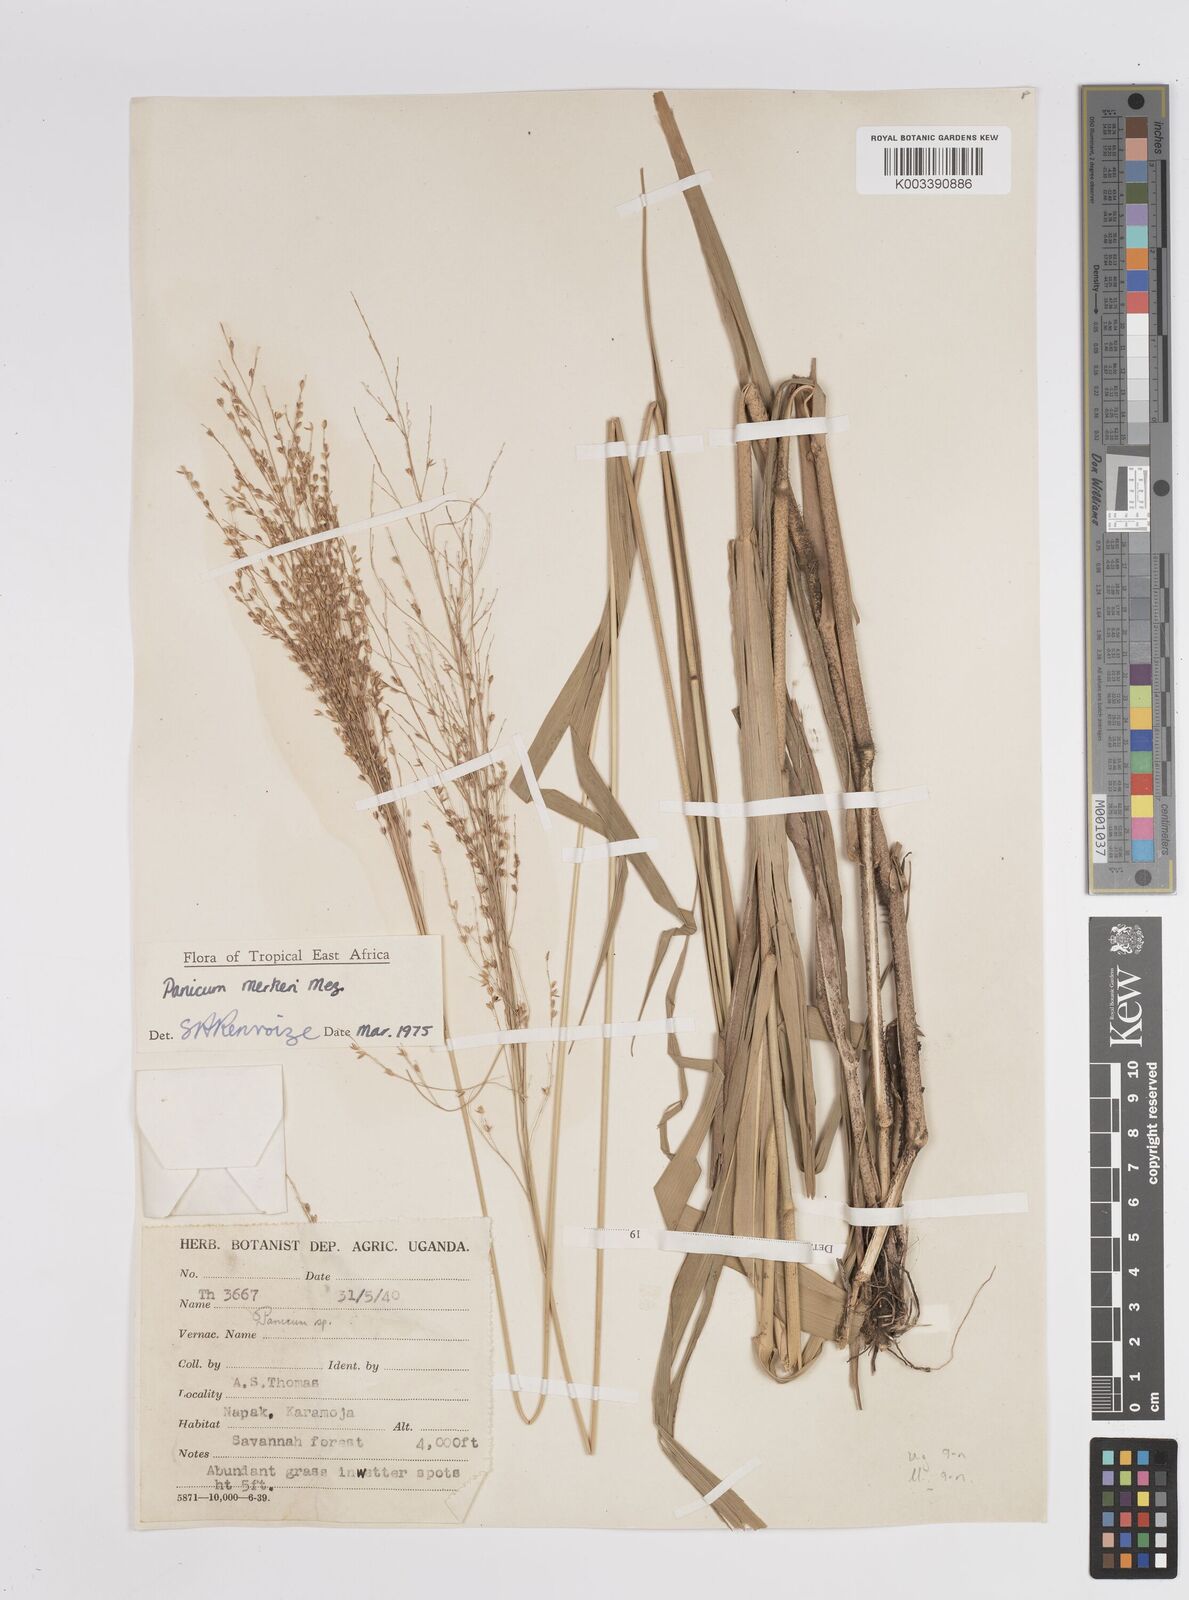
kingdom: Plantae
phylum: Tracheophyta
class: Liliopsida
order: Poales
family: Poaceae
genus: Panicum
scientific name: Panicum merkeri
